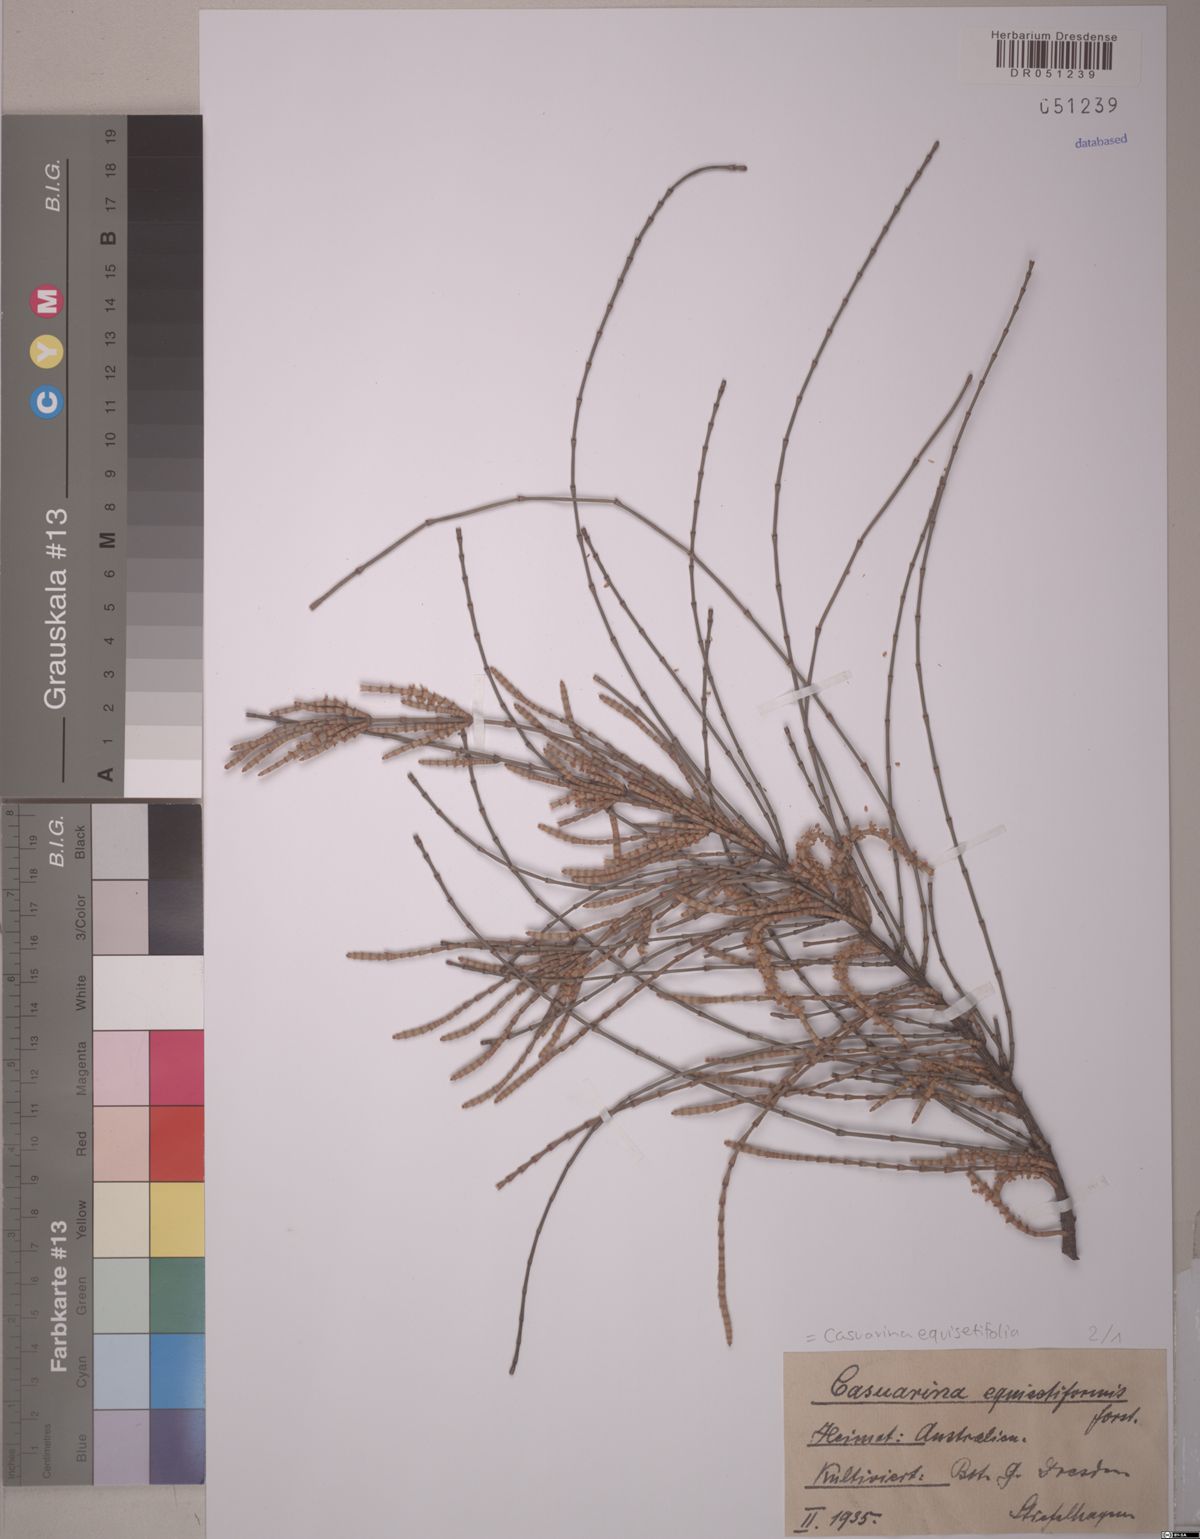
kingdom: Plantae
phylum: Tracheophyta
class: Magnoliopsida
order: Fagales
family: Casuarinaceae
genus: Casuarina
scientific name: Casuarina equisetifolia
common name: Beach sheoak
